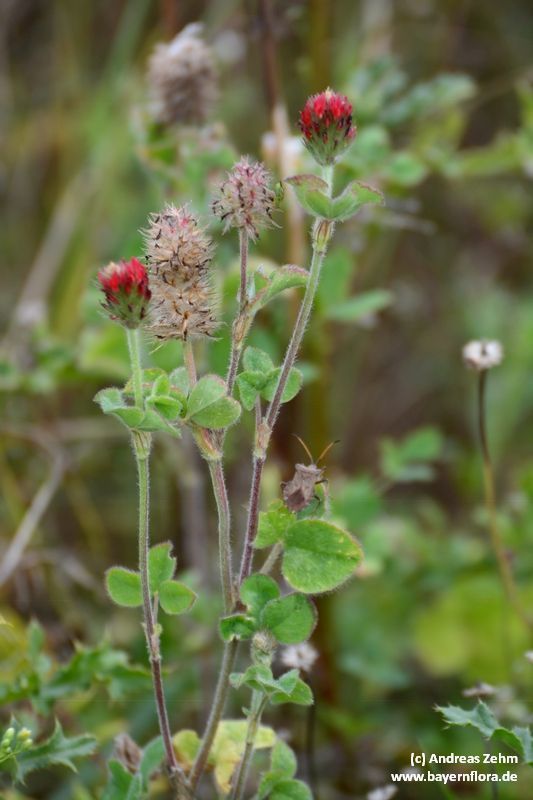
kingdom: Plantae
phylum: Tracheophyta
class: Magnoliopsida
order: Fabales
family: Fabaceae
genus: Trifolium
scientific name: Trifolium incarnatum
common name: Crimson clover
